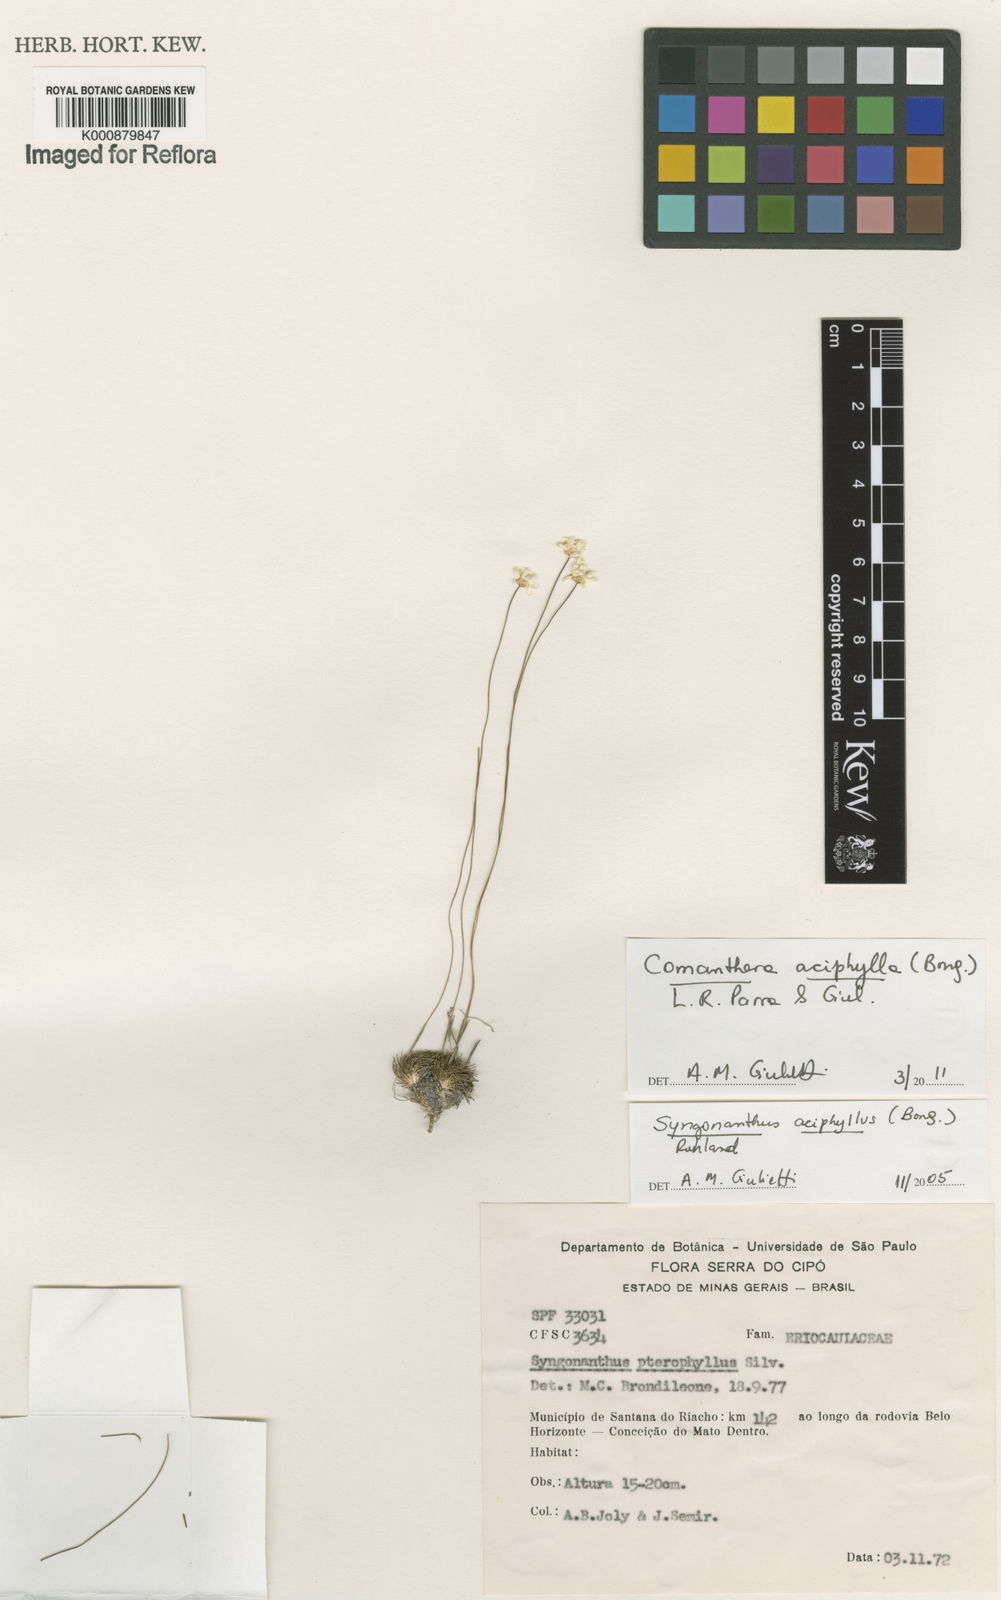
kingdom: Plantae
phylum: Tracheophyta
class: Liliopsida
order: Poales
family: Eriocaulaceae
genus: Comanthera
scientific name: Comanthera aciphylla
